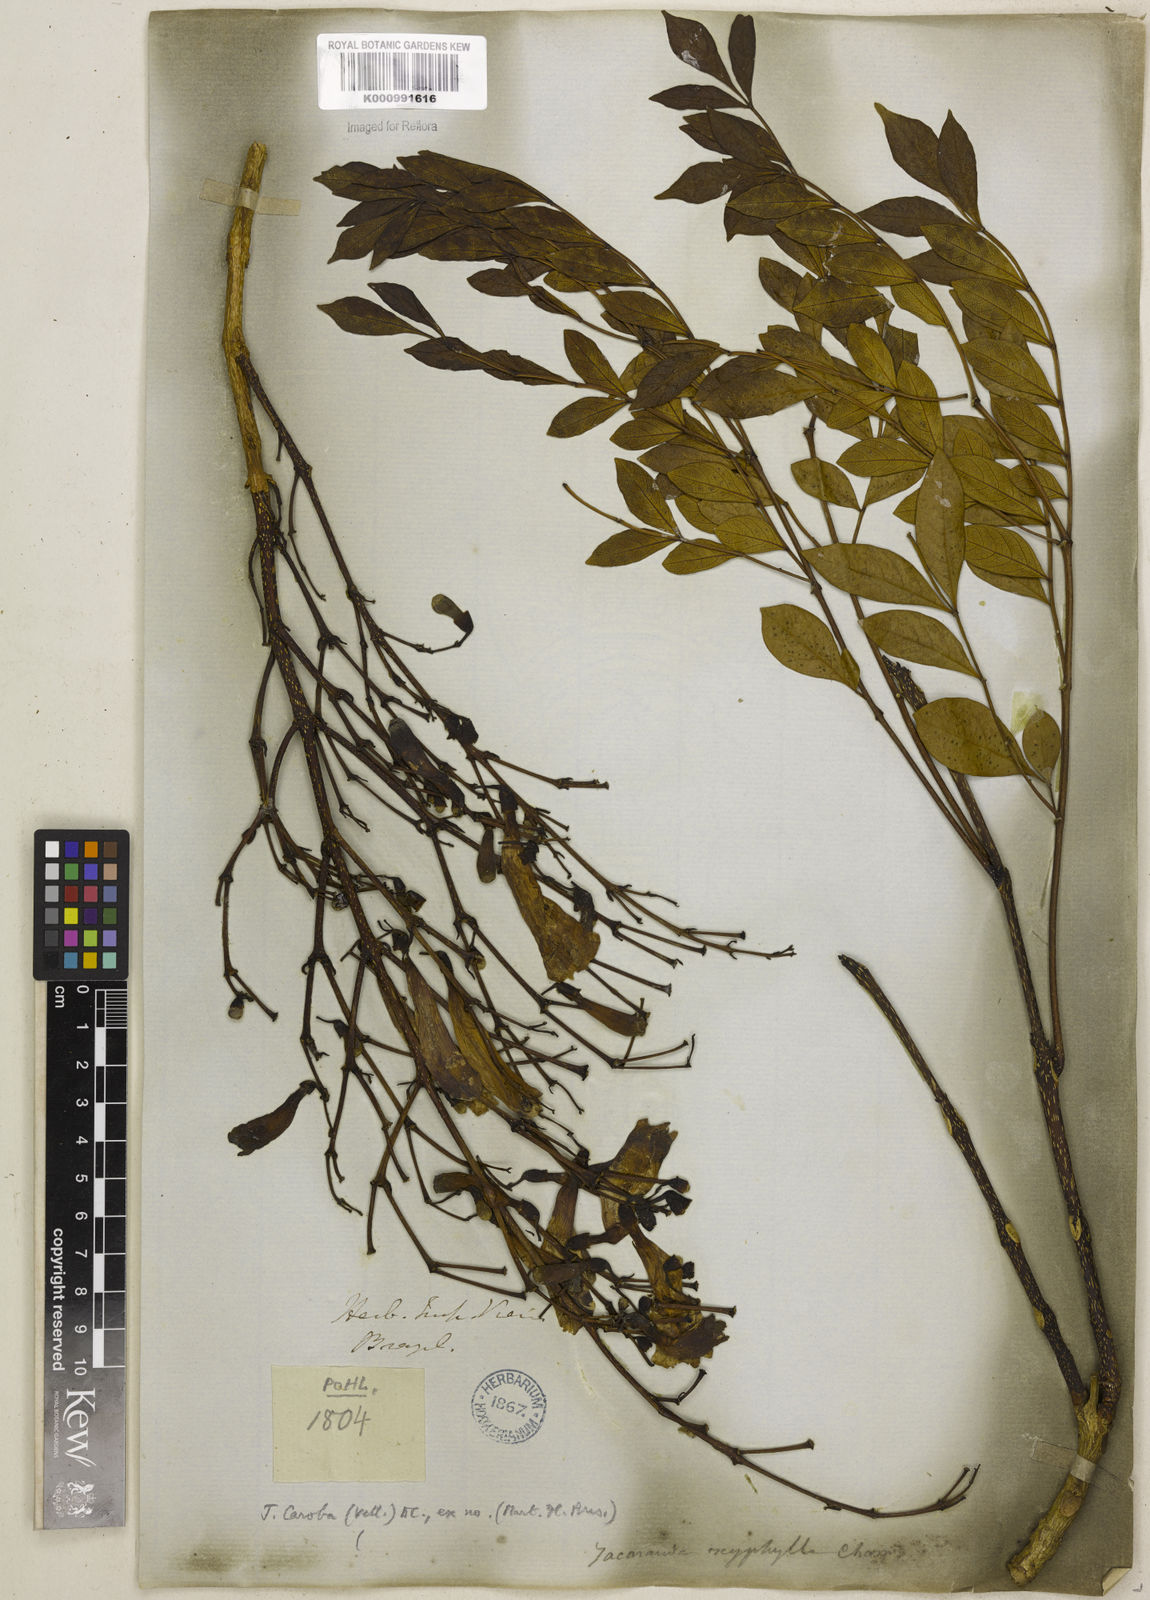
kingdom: Plantae
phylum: Tracheophyta
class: Magnoliopsida
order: Lamiales
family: Bignoniaceae
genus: Jacaranda
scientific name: Jacaranda caroba
